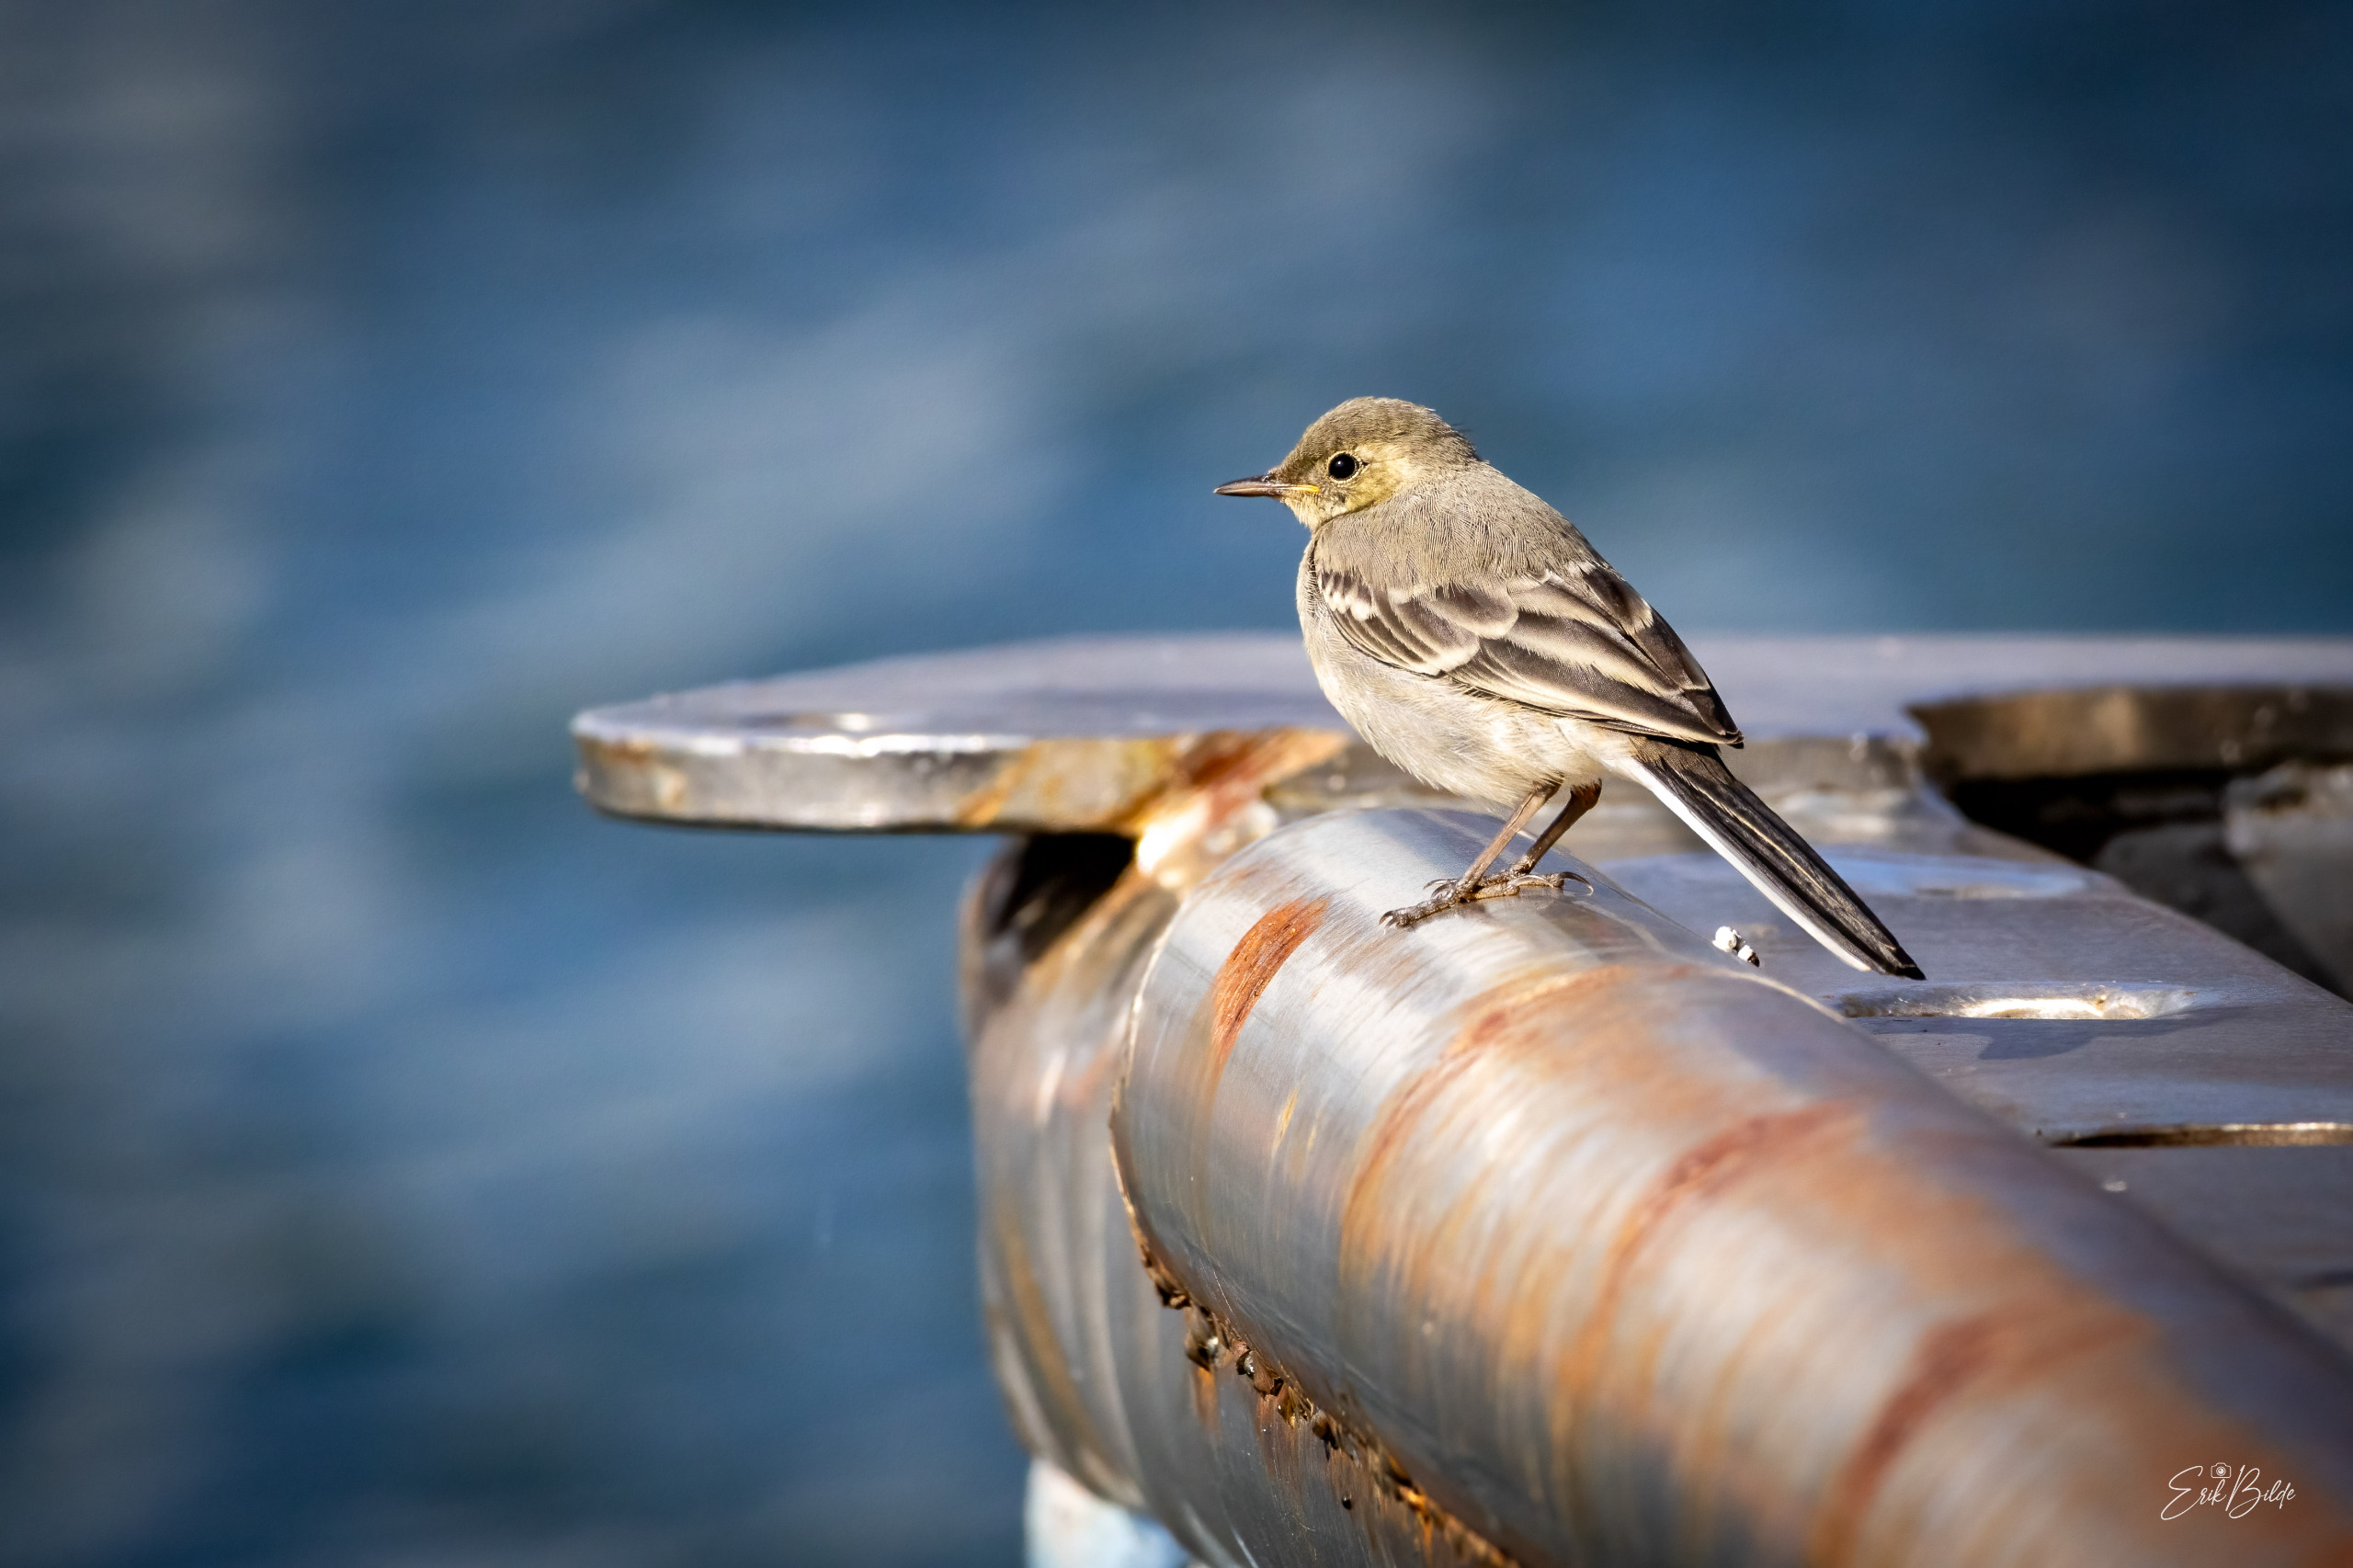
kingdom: Animalia
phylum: Chordata
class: Aves
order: Passeriformes
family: Motacillidae
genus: Motacilla
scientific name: Motacilla alba
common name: Hvid vipstjert
